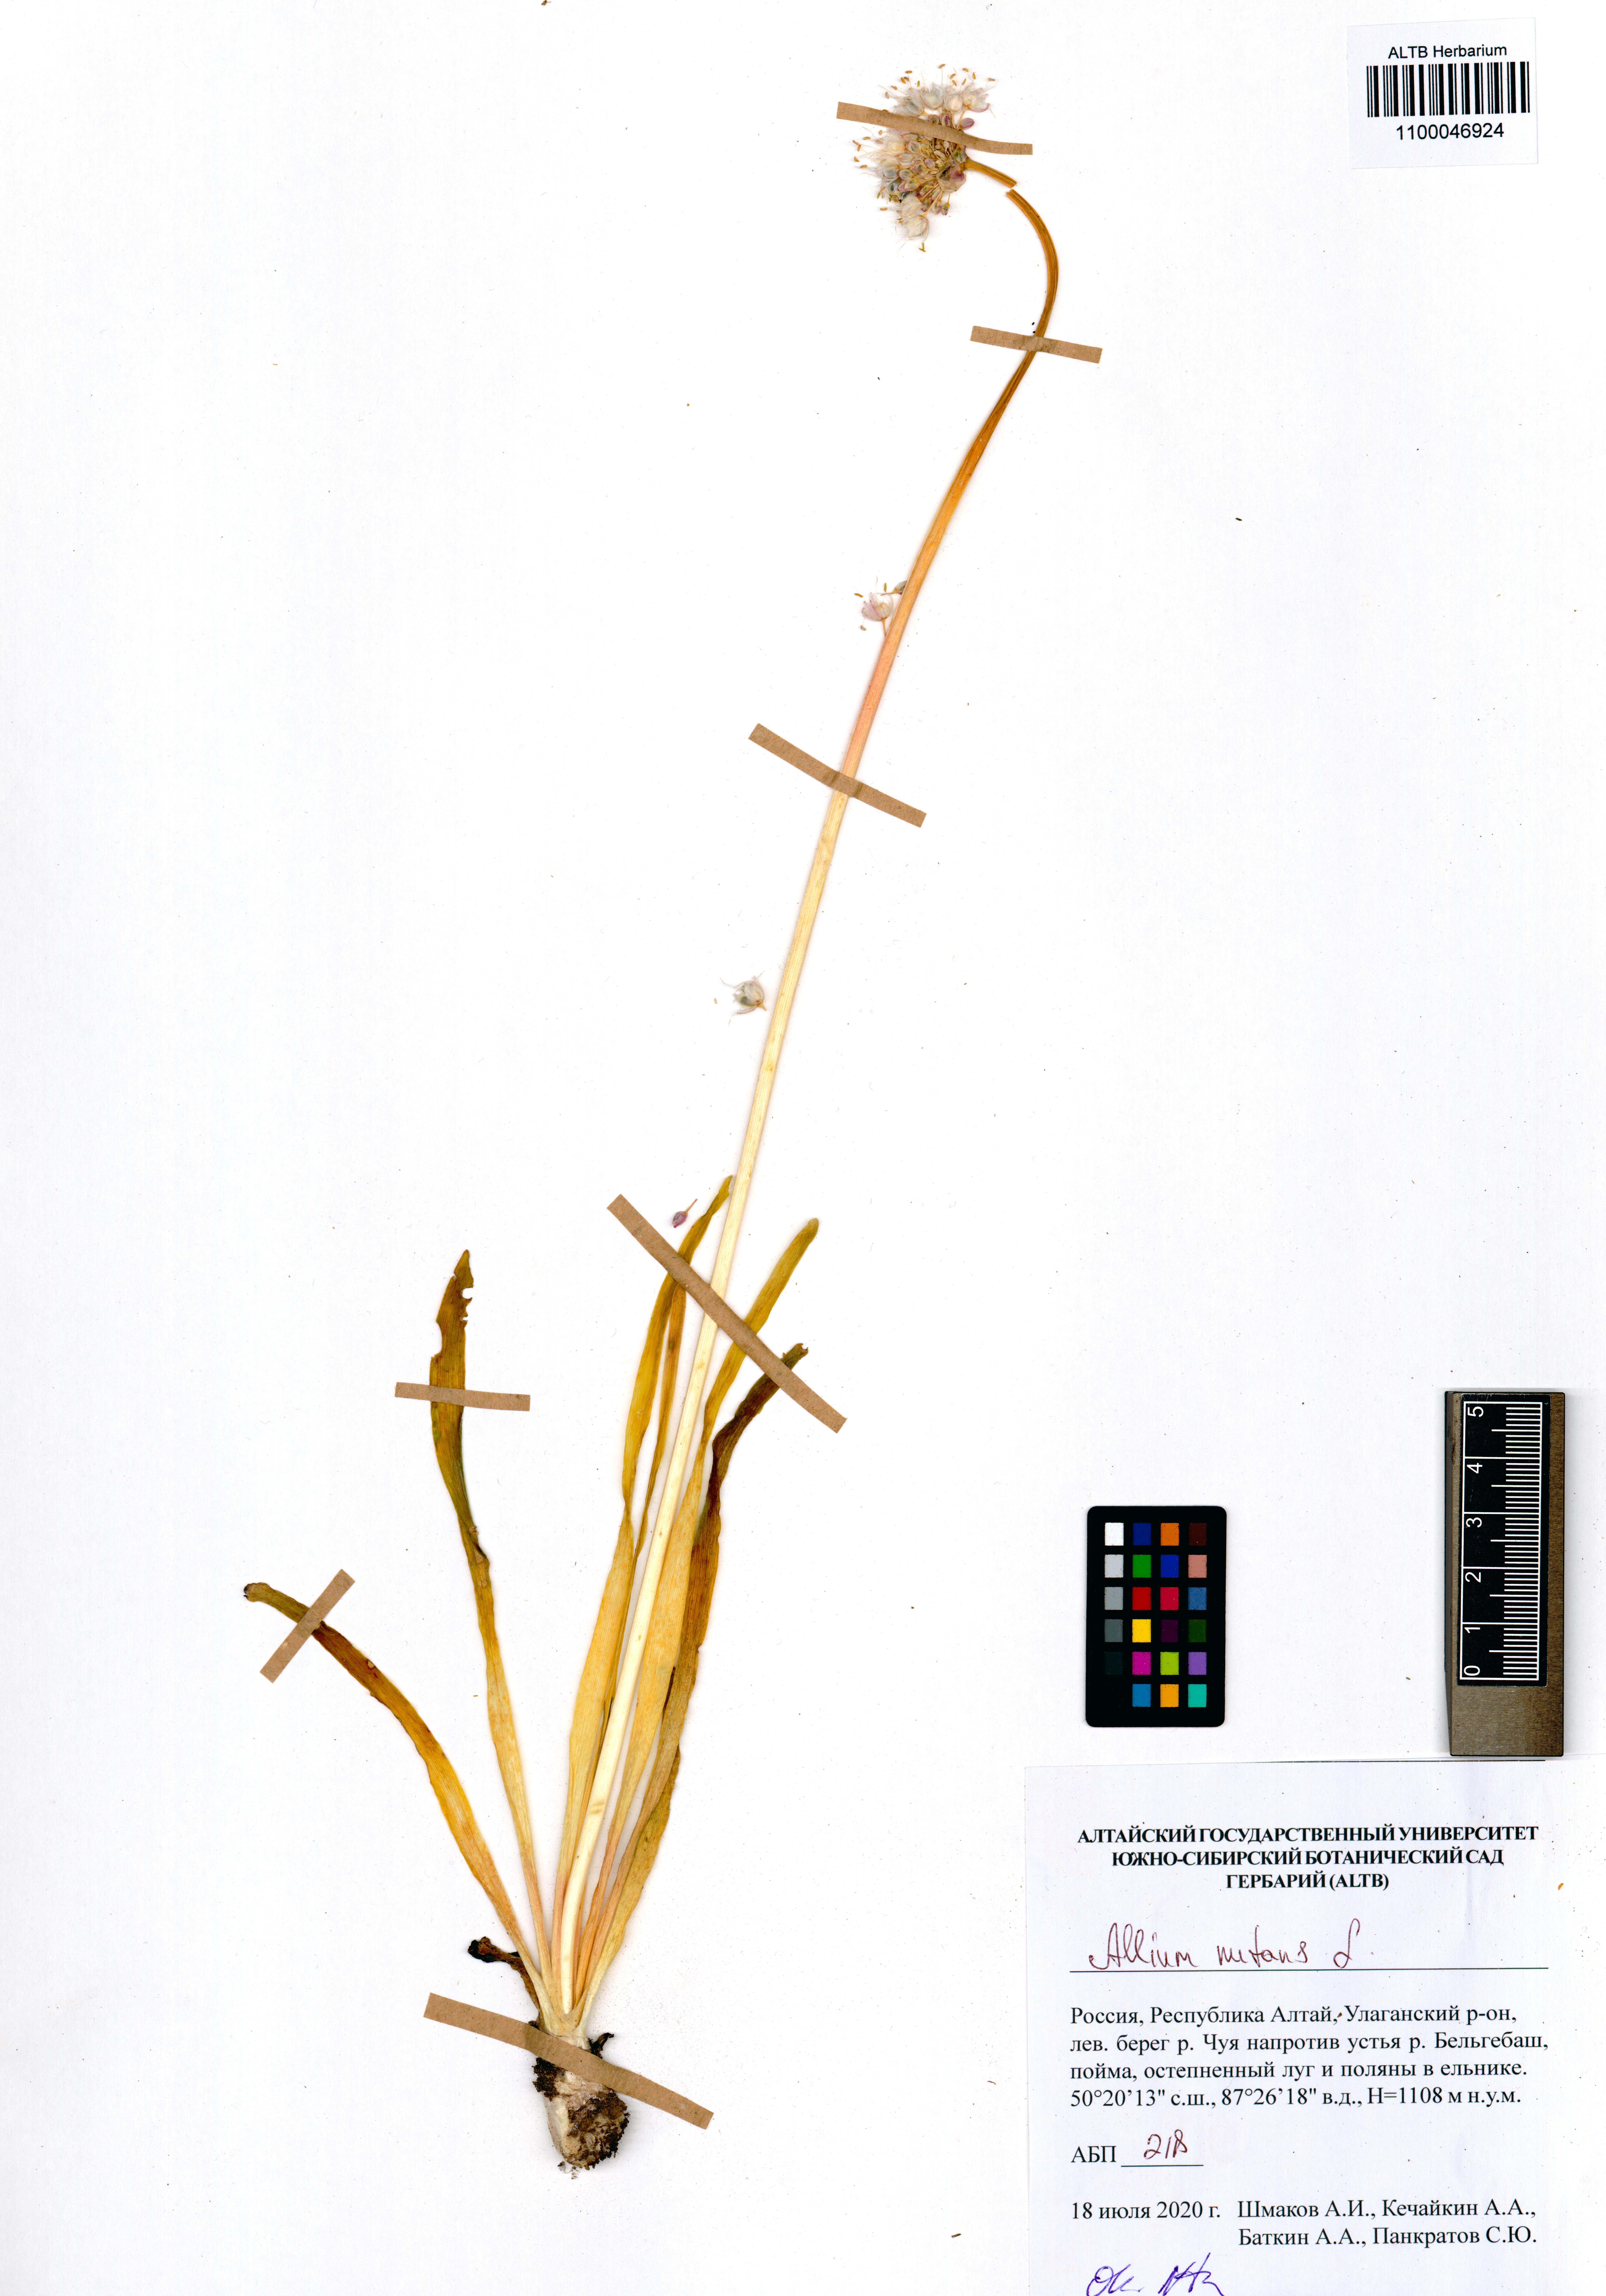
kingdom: Plantae
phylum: Tracheophyta
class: Liliopsida
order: Asparagales
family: Amaryllidaceae
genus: Allium
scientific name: Allium nutans
